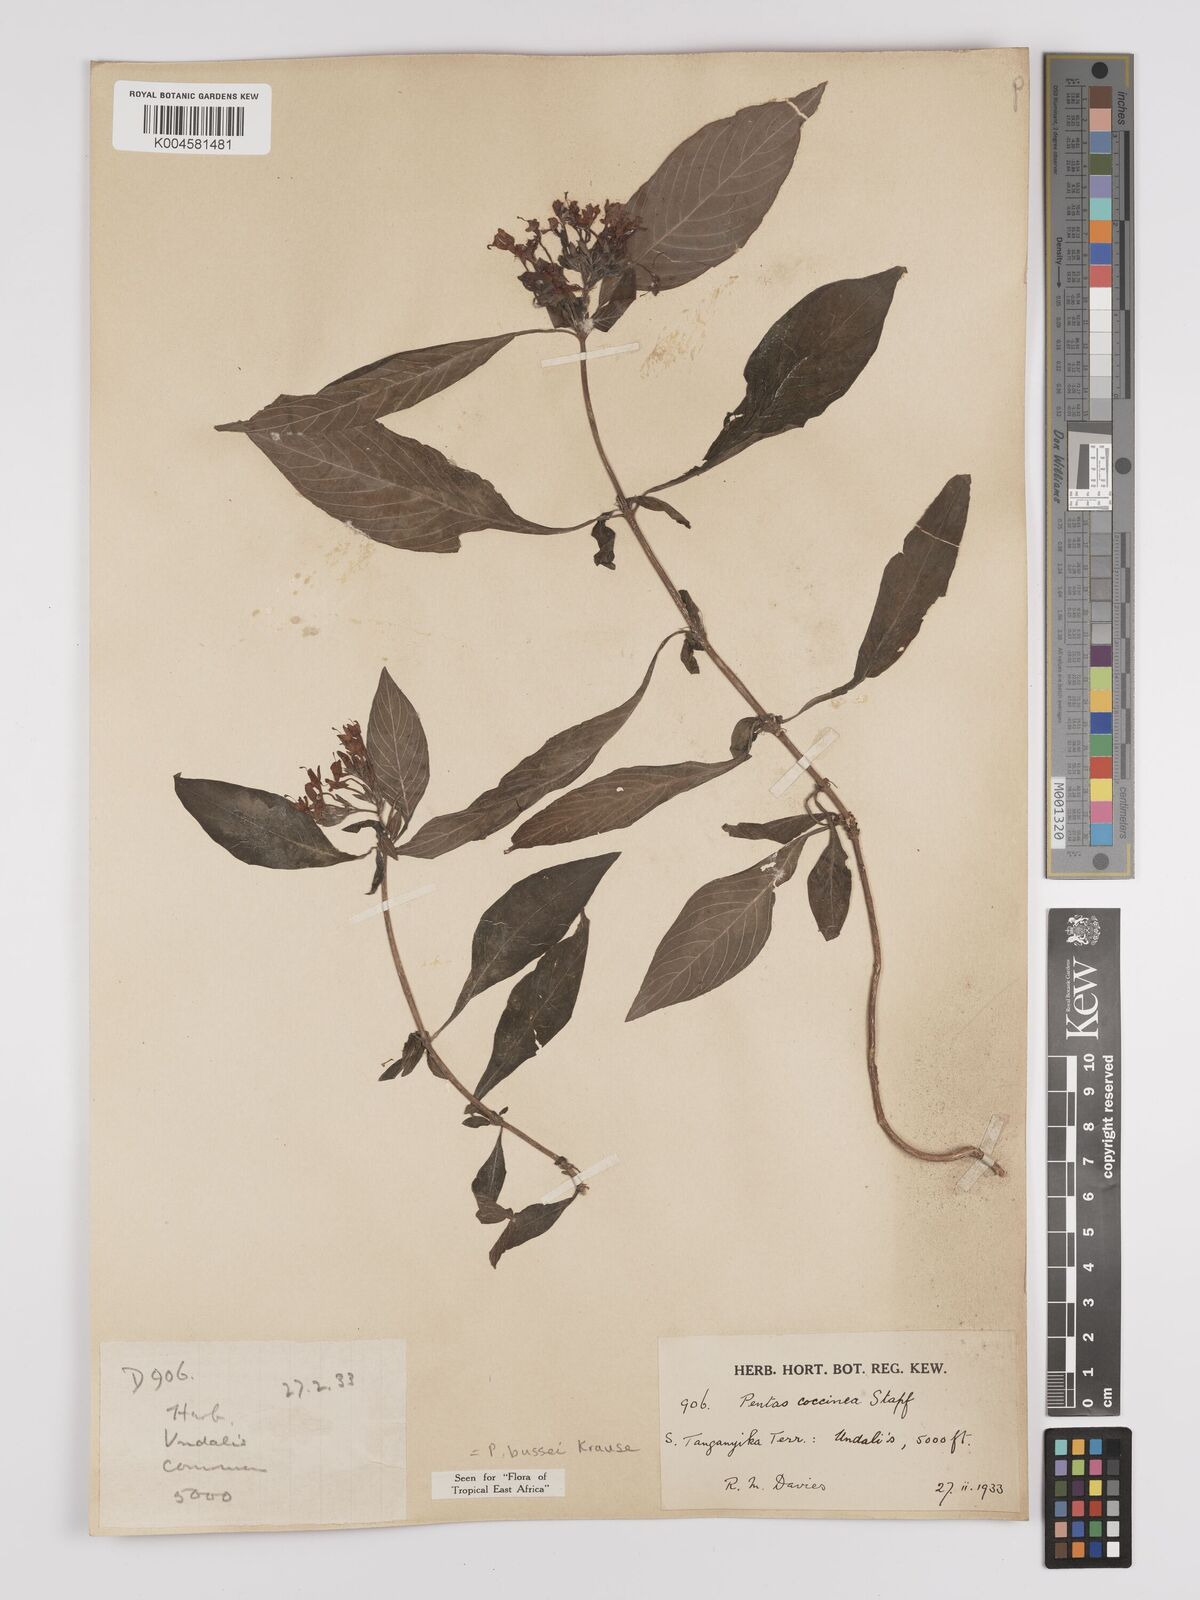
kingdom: Plantae
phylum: Tracheophyta
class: Magnoliopsida
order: Gentianales
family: Rubiaceae
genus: Rhodopentas
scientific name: Rhodopentas bussei
